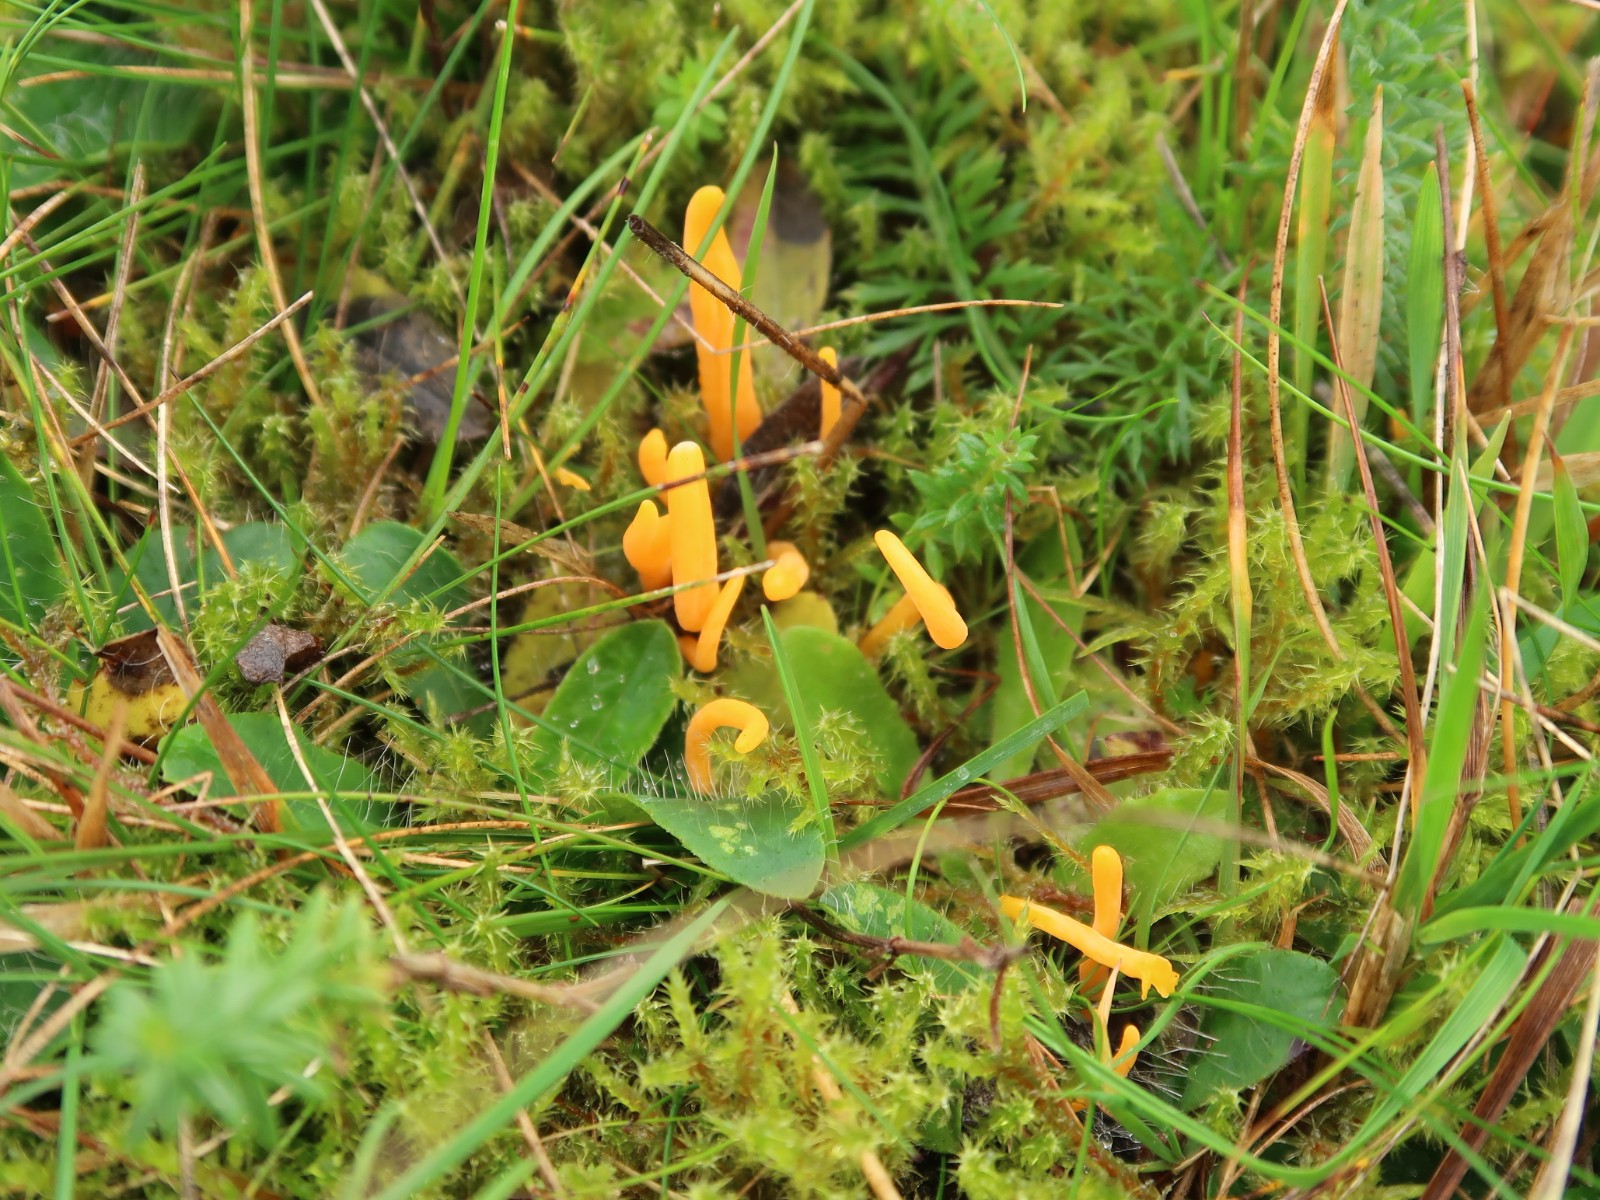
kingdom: Fungi
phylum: Basidiomycota
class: Agaricomycetes
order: Agaricales
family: Clavariaceae
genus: Clavulinopsis
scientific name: Clavulinopsis
